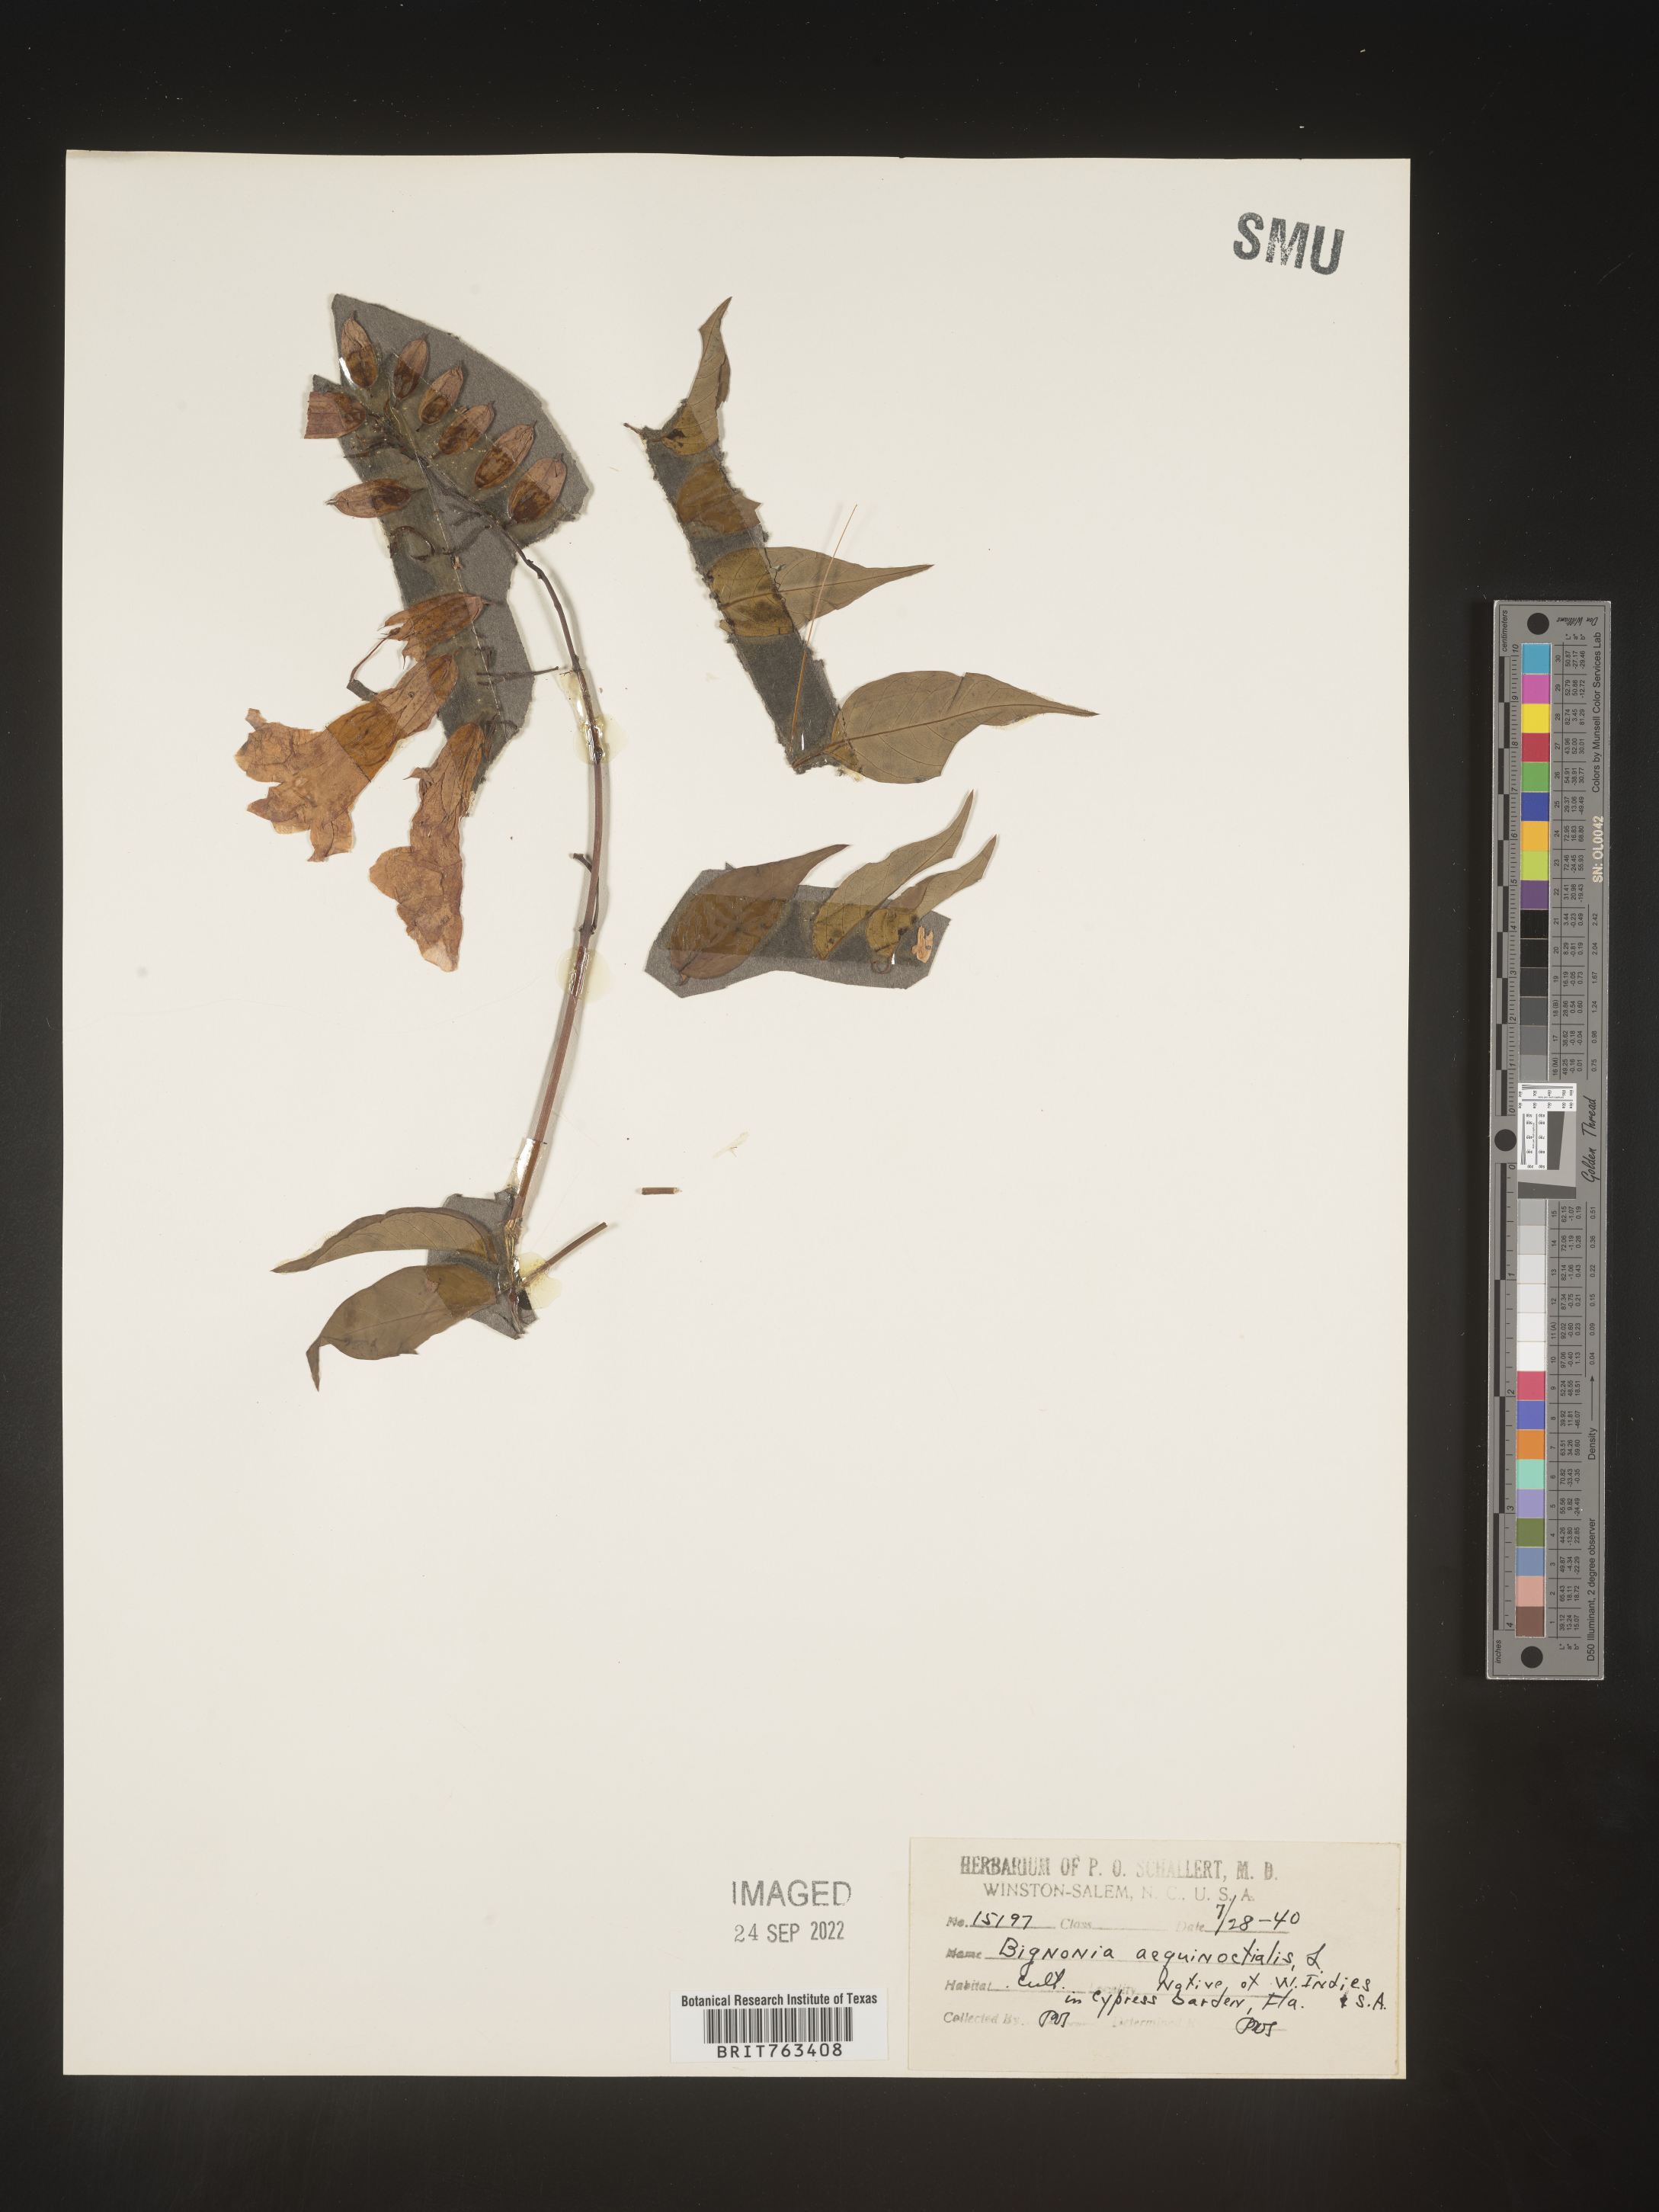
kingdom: Plantae
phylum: Tracheophyta
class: Magnoliopsida
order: Lamiales
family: Bignoniaceae
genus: Bignonia
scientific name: Bignonia
